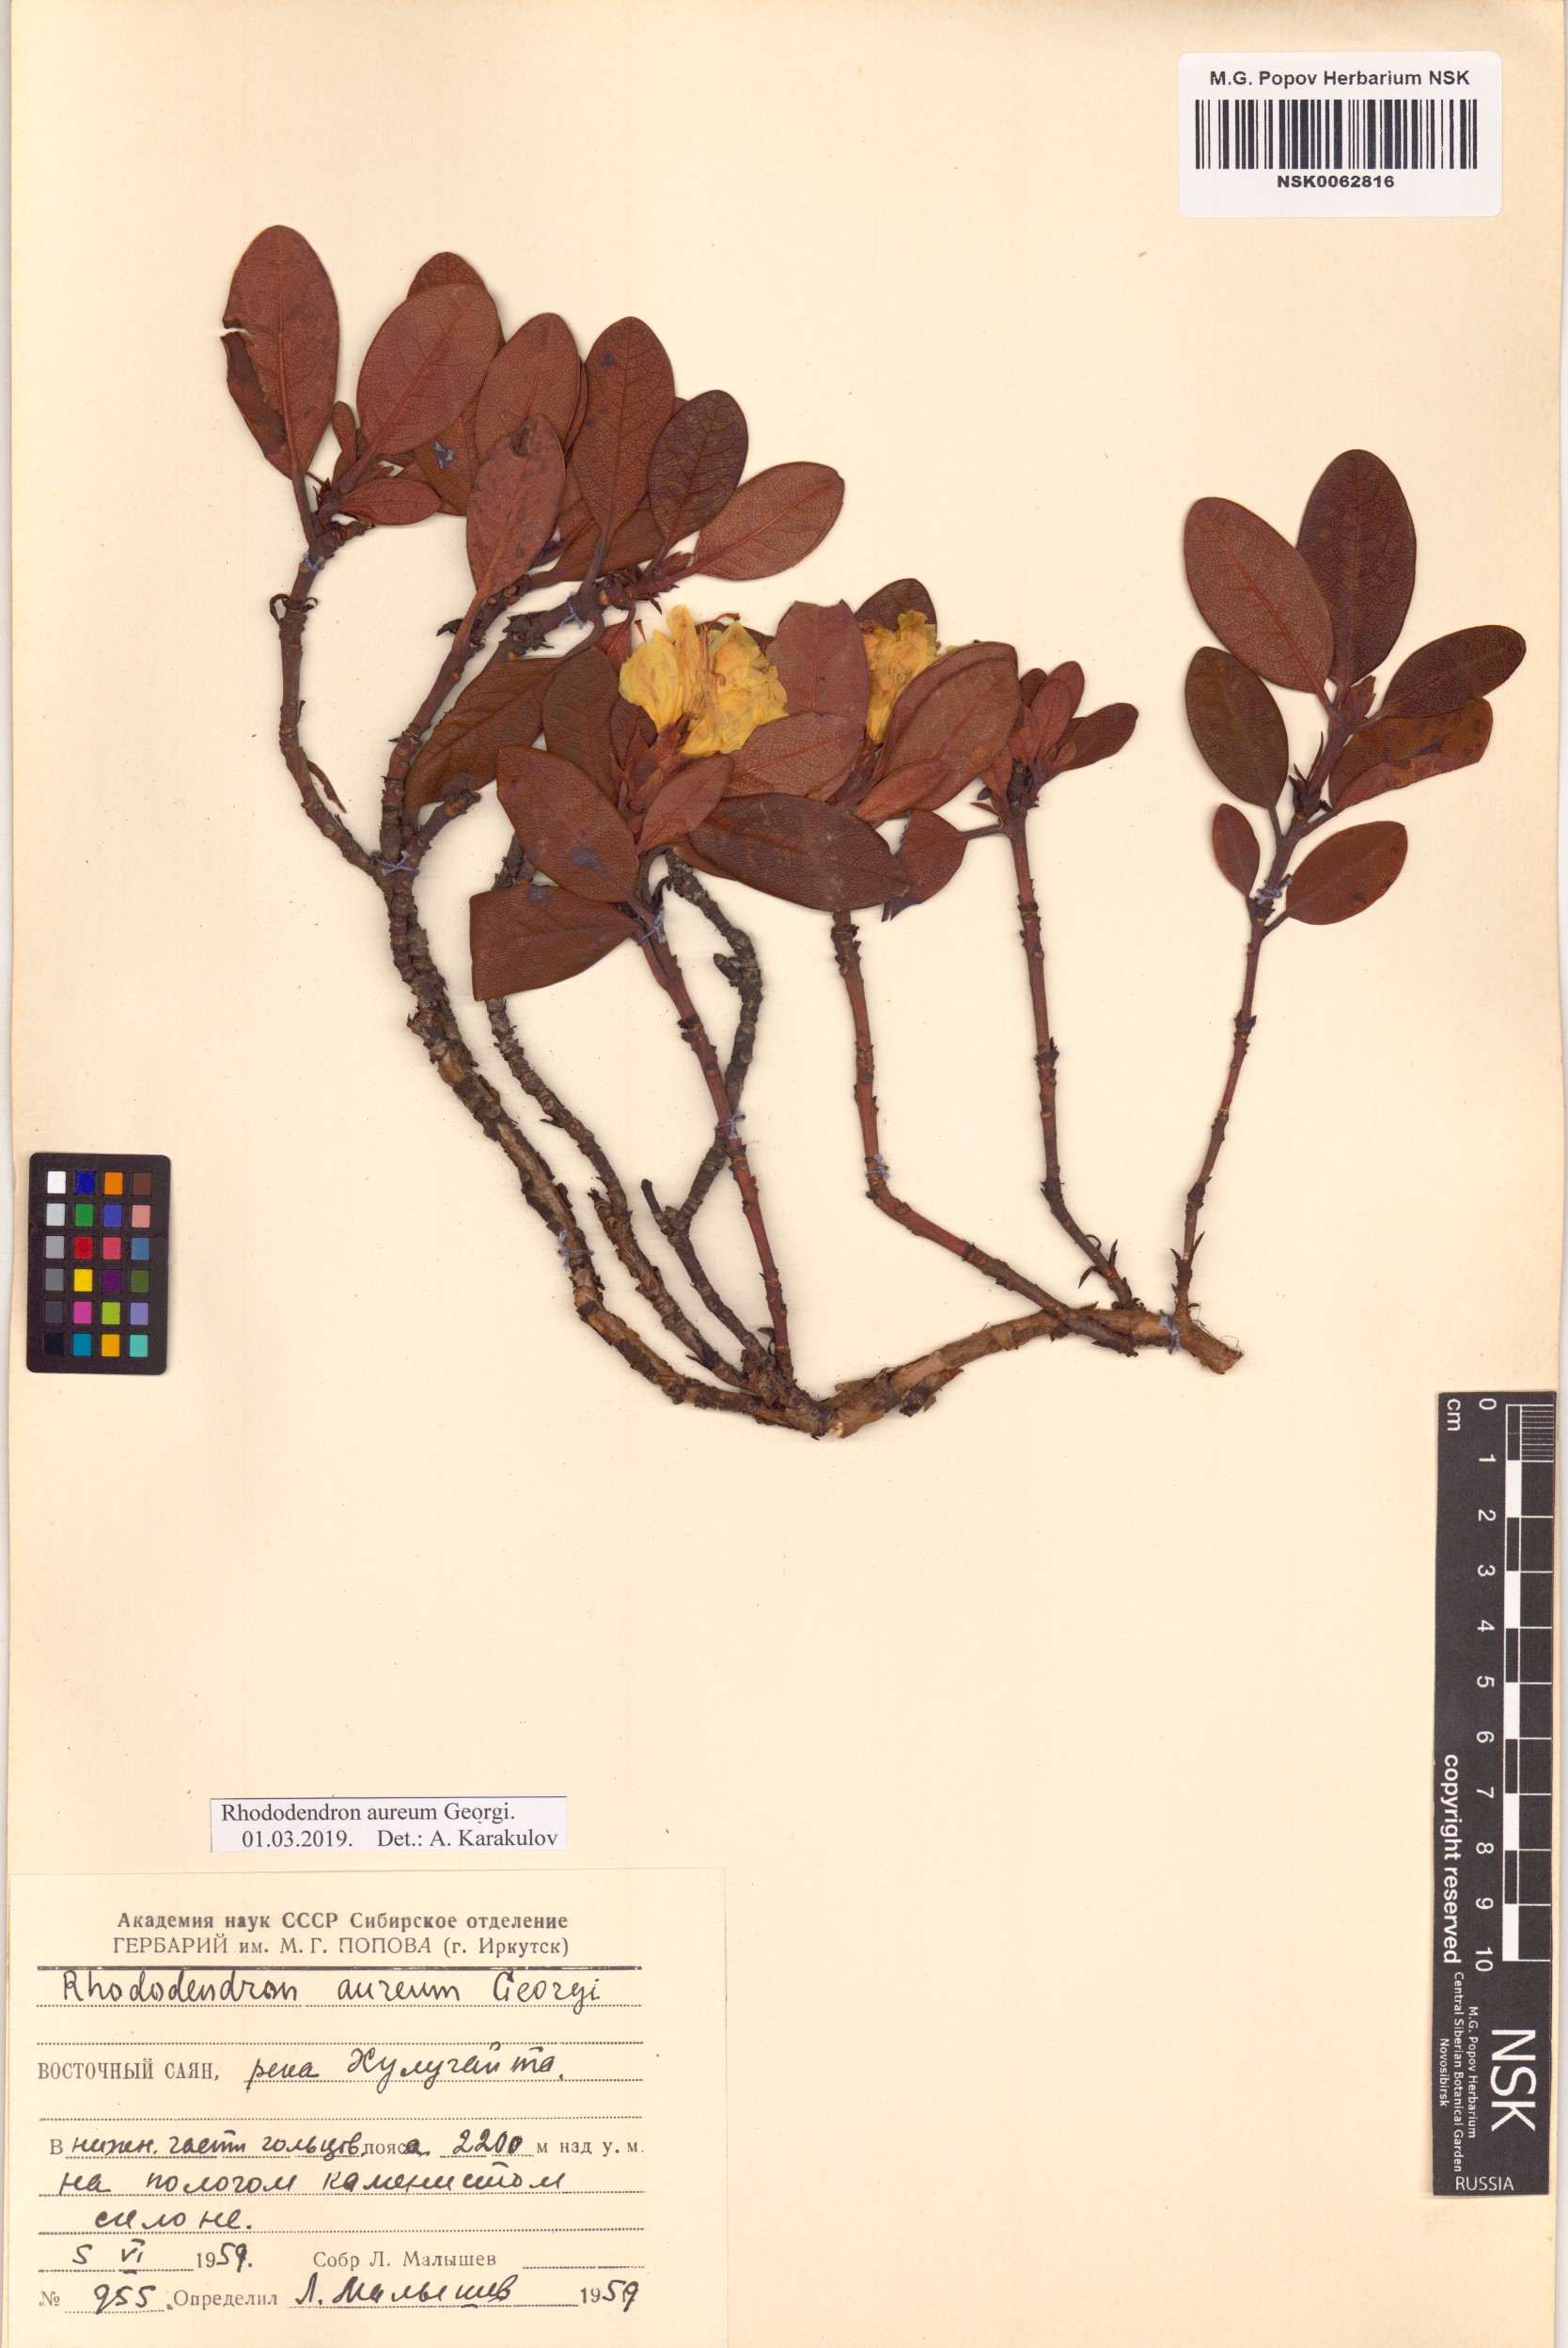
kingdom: Plantae
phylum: Tracheophyta
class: Magnoliopsida
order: Ericales
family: Ericaceae
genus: Rhododendron
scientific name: Rhododendron aureum
